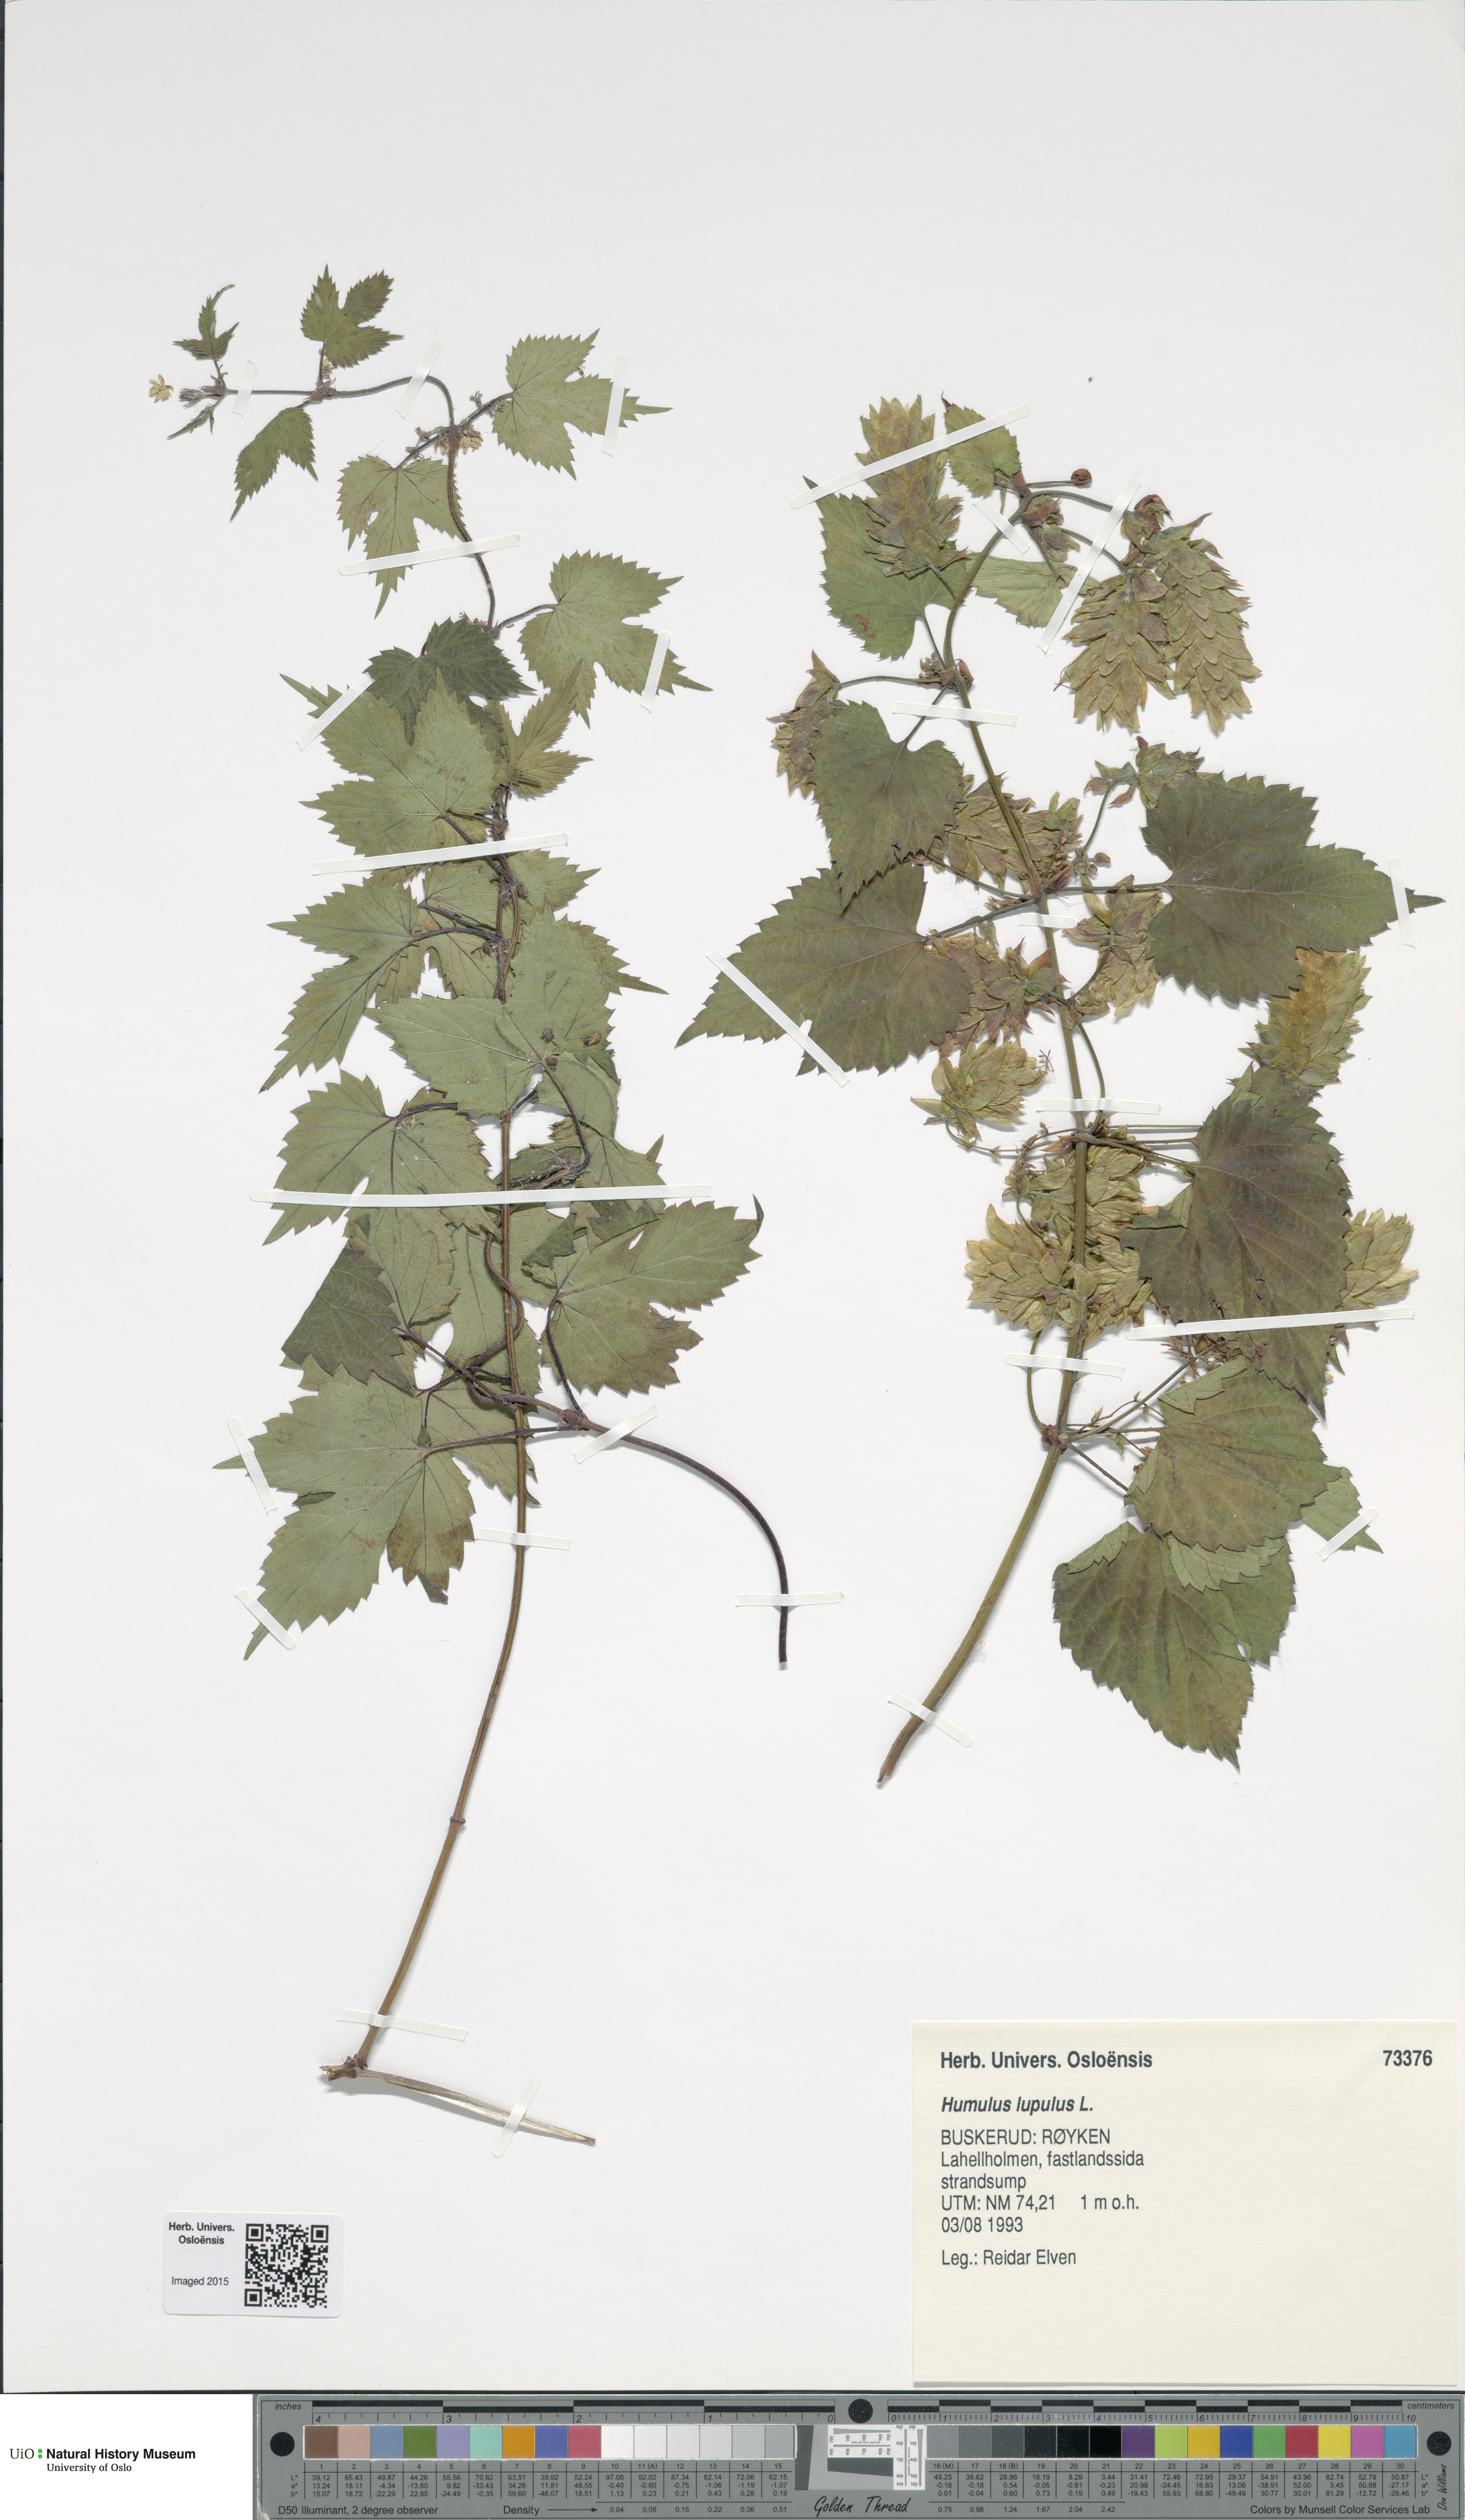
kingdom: Plantae
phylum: Tracheophyta
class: Magnoliopsida
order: Rosales
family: Cannabaceae
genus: Humulus
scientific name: Humulus lupulus
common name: Hop
